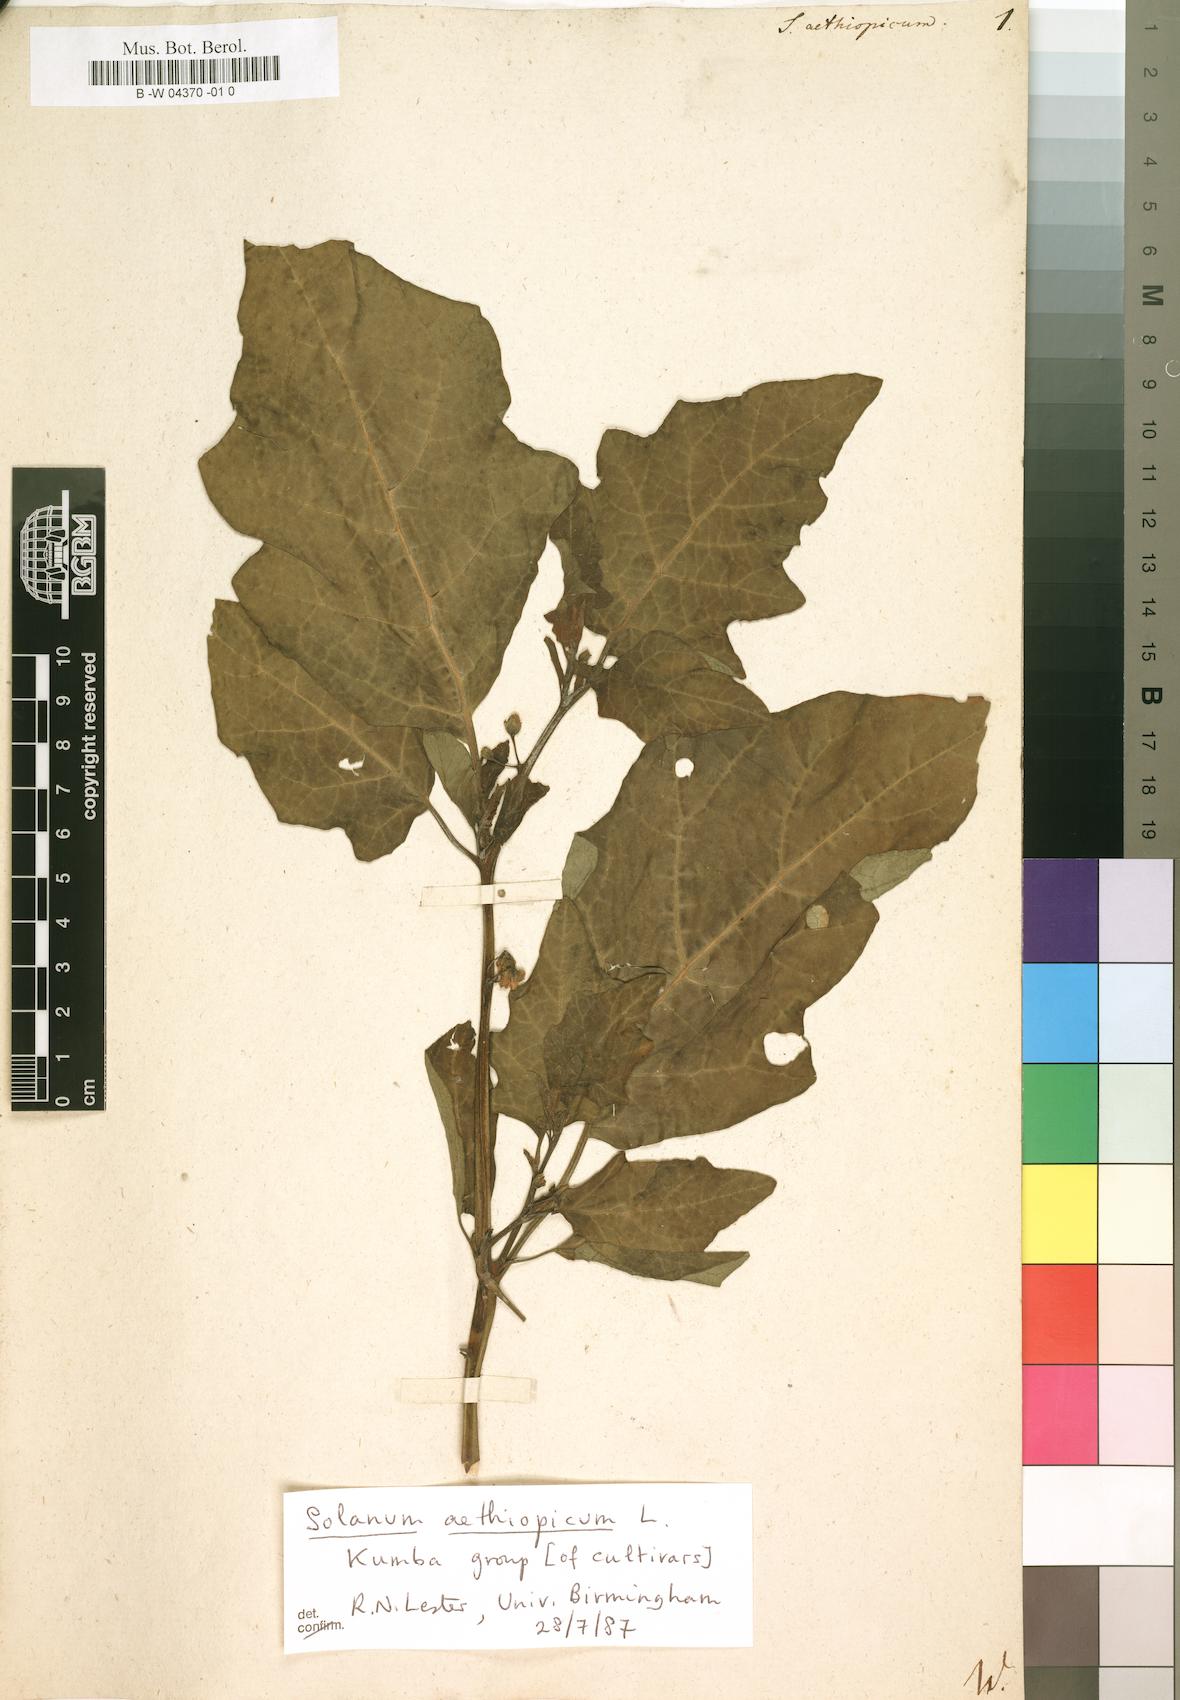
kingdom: Plantae
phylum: Tracheophyta
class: Magnoliopsida
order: Solanales
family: Solanaceae
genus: Solanum
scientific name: Solanum aethiopicum
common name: Gilo
